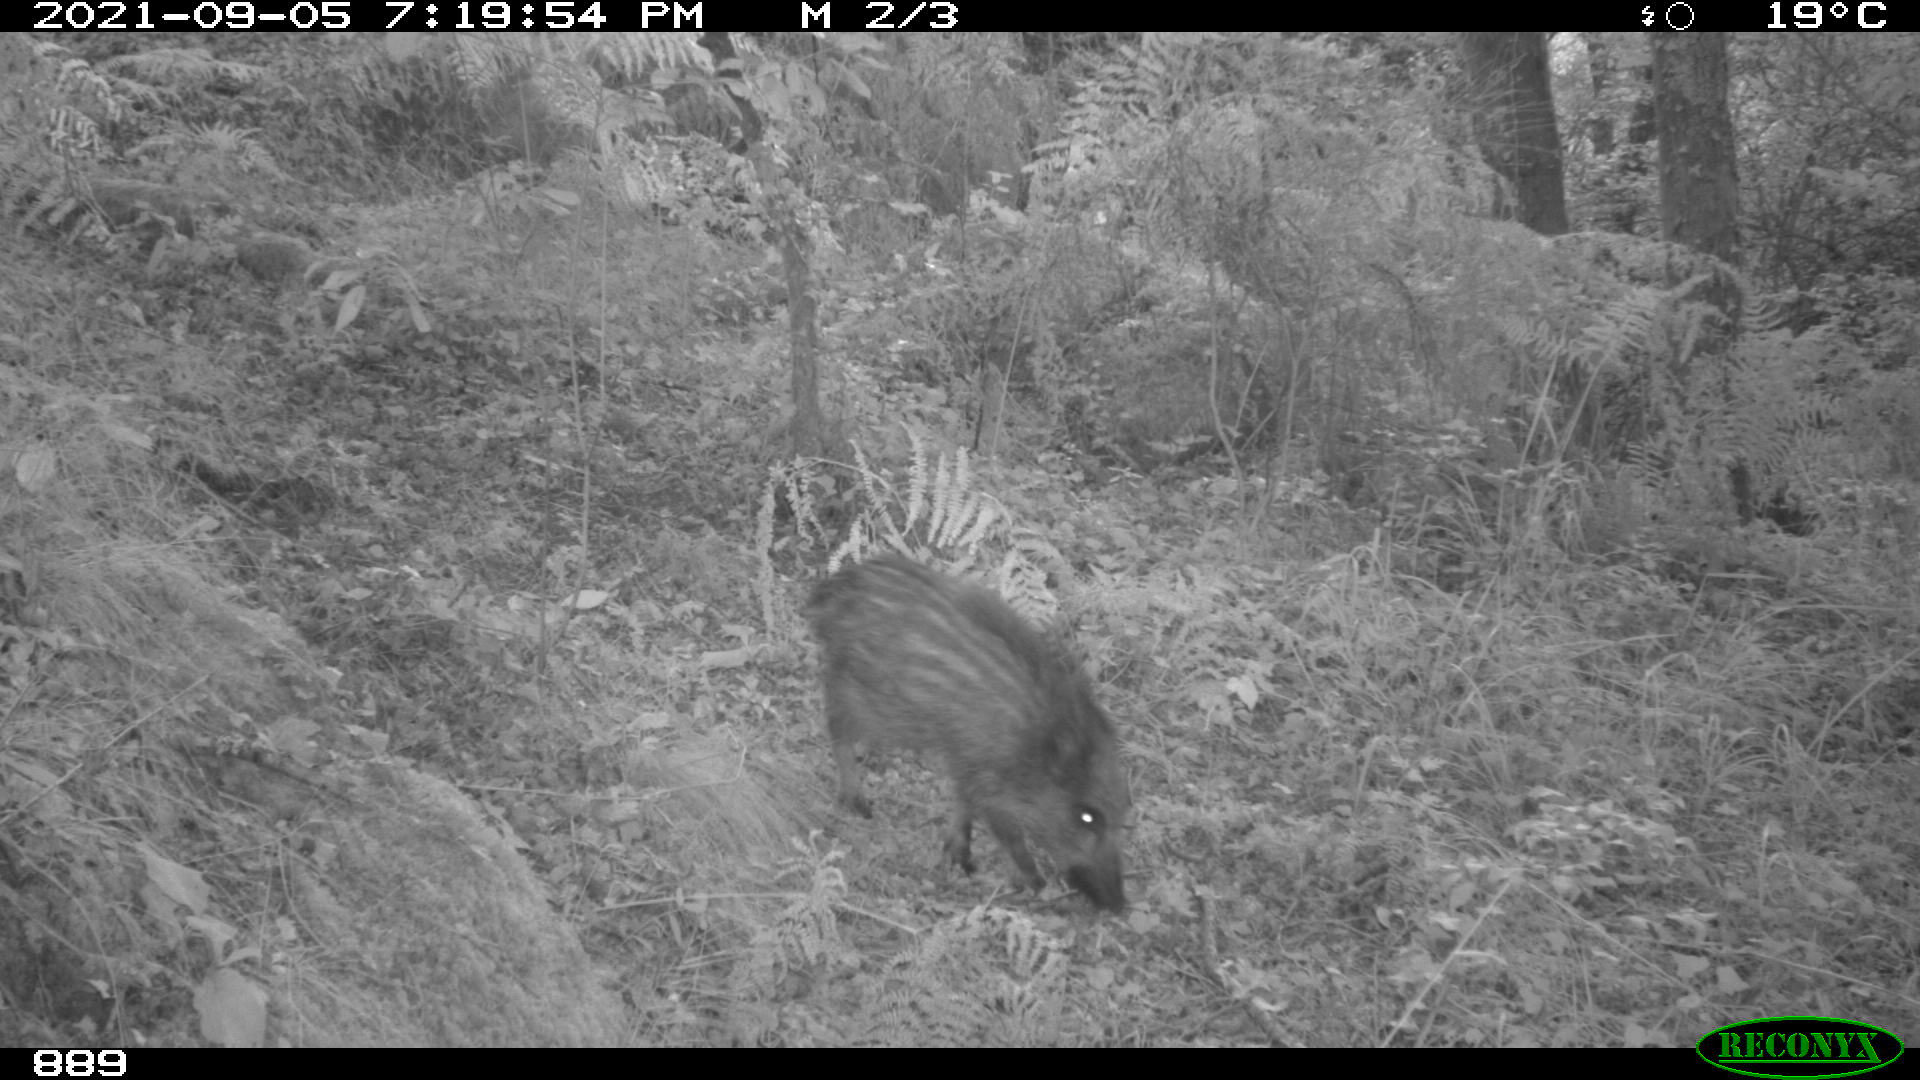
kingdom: Animalia
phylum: Chordata
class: Mammalia
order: Artiodactyla
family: Suidae
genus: Sus
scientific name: Sus scrofa
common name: Wild boar
